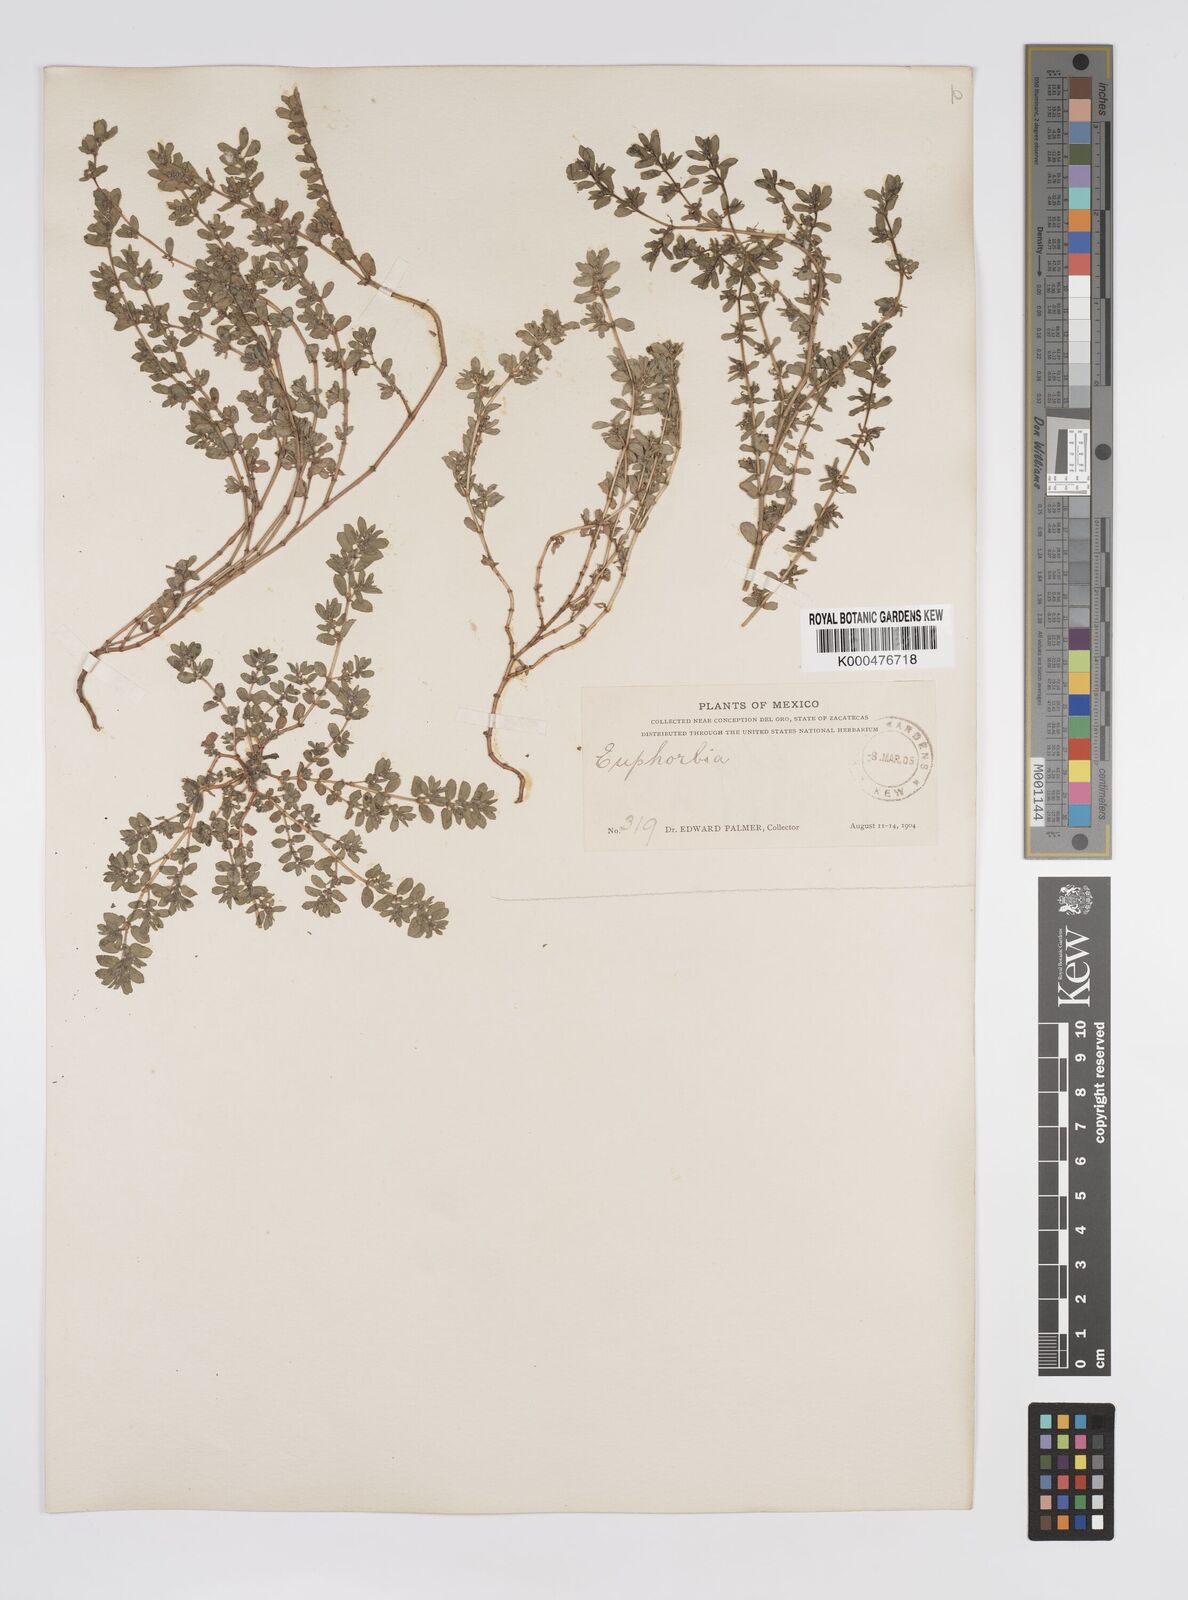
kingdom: Plantae
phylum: Tracheophyta
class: Magnoliopsida
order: Malpighiales
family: Euphorbiaceae
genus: Euphorbia
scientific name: Euphorbia
